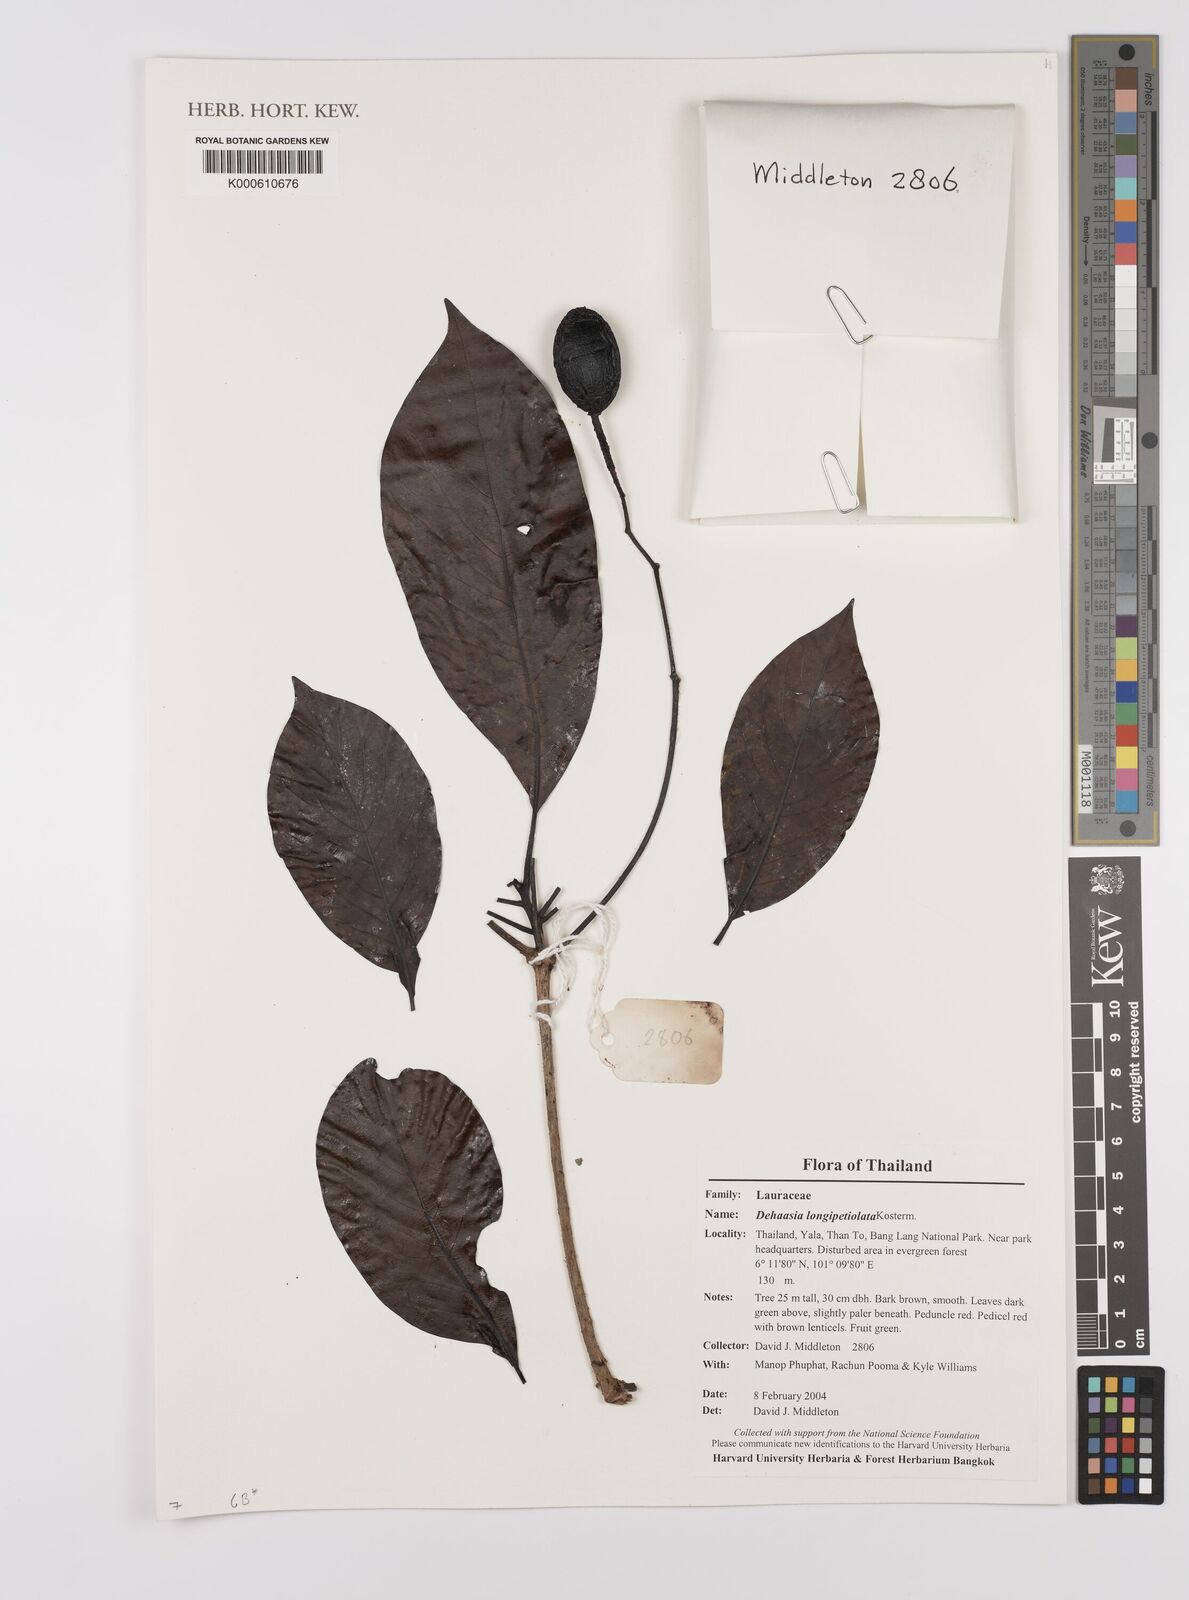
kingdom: Plantae
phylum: Tracheophyta
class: Magnoliopsida
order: Laurales
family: Lauraceae
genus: Dehaasia
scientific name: Dehaasia longipetiolata
